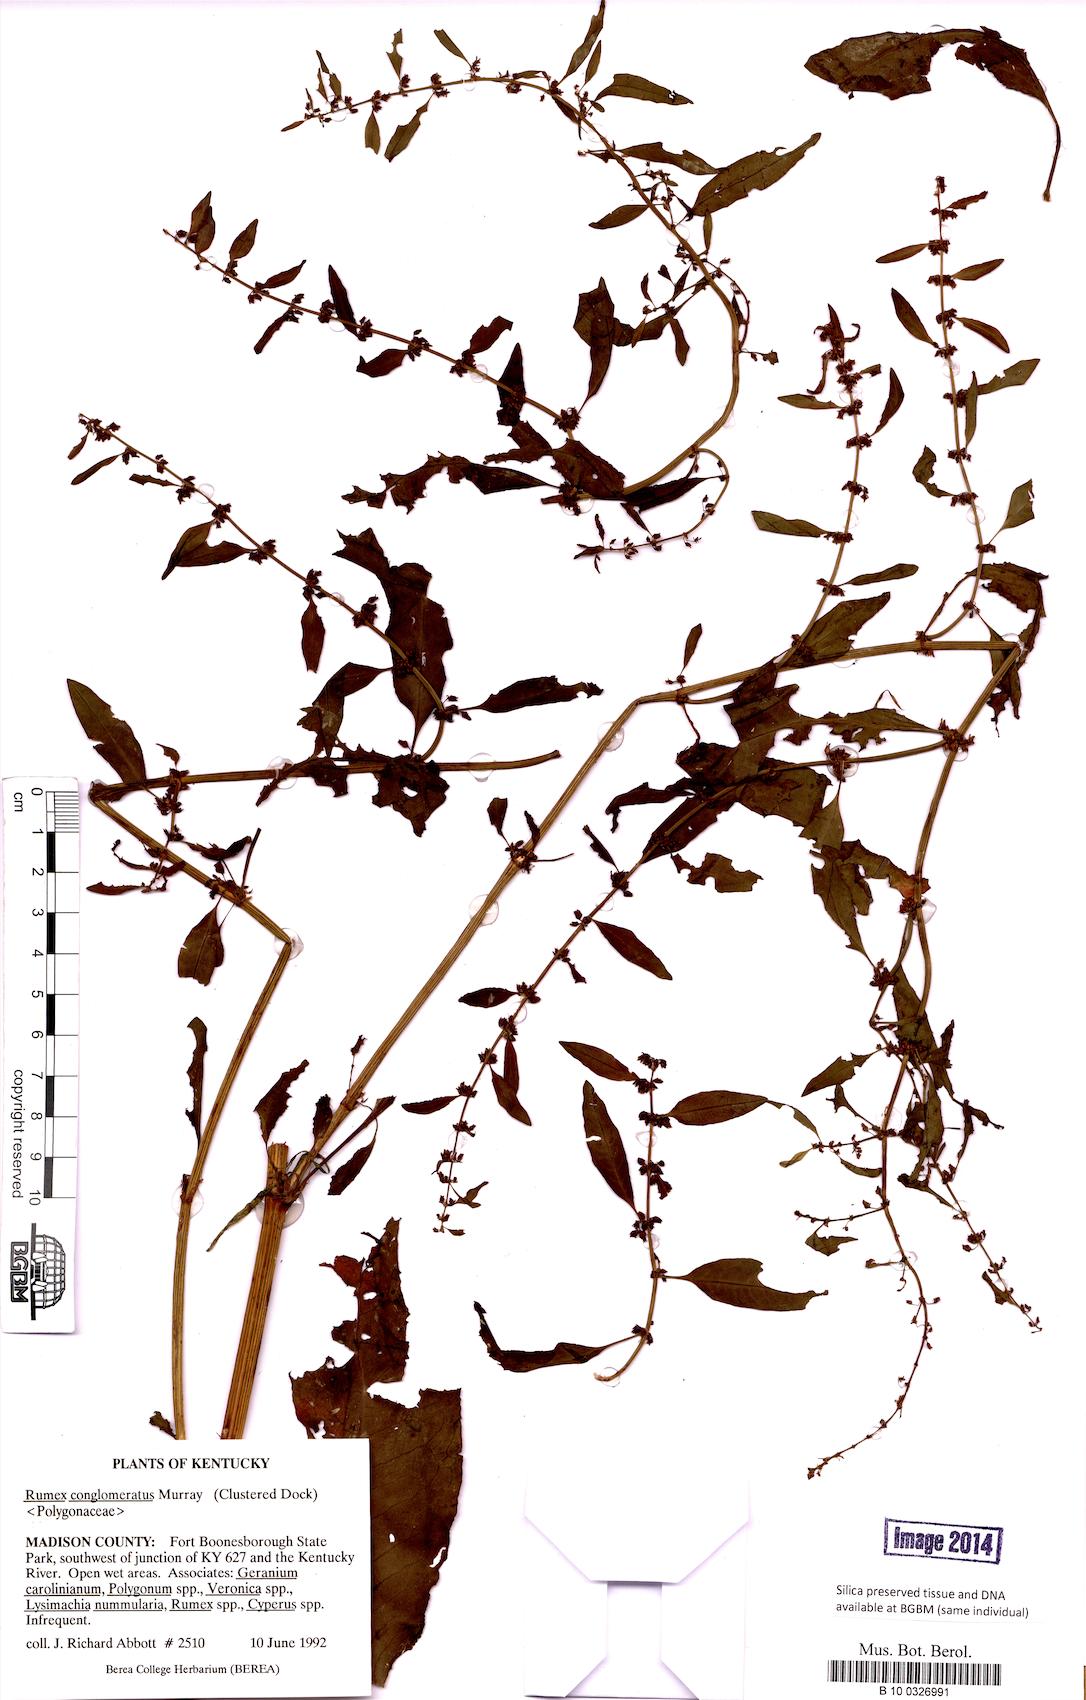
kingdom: Plantae
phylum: Tracheophyta
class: Magnoliopsida
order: Caryophyllales
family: Polygonaceae
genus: Rumex
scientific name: Rumex conglomeratus
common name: Clustered dock
